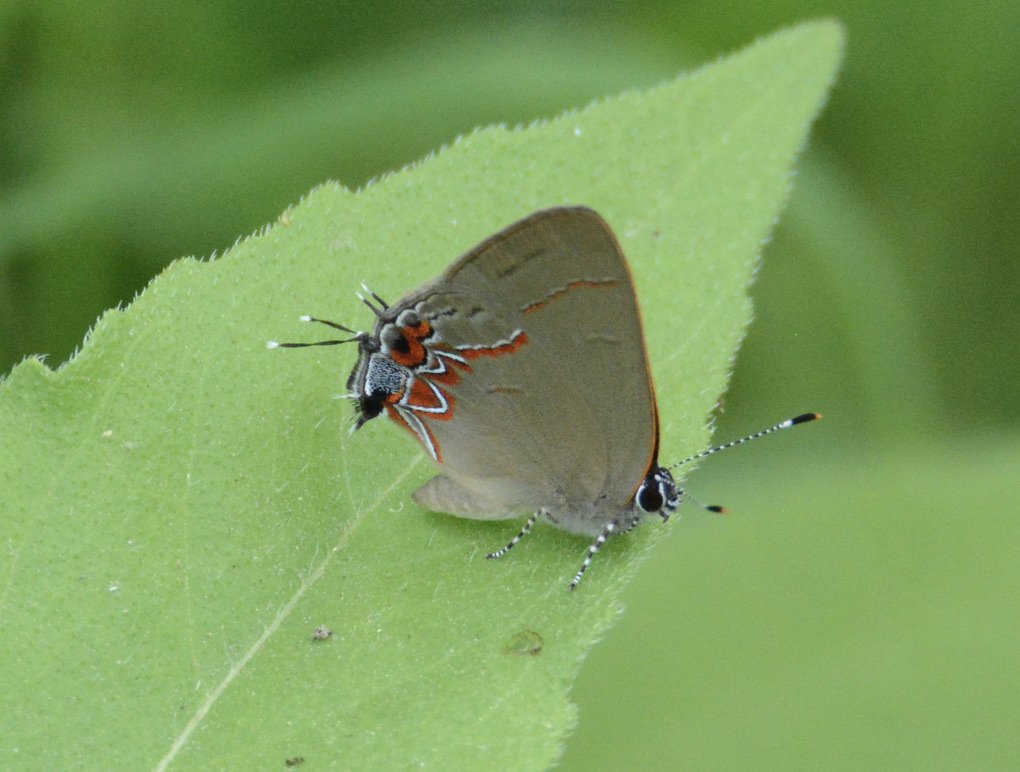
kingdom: Animalia
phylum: Arthropoda
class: Insecta
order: Lepidoptera
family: Lycaenidae
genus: Calycopis
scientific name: Calycopis isobeon
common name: Dusky-blue Groundstreak
